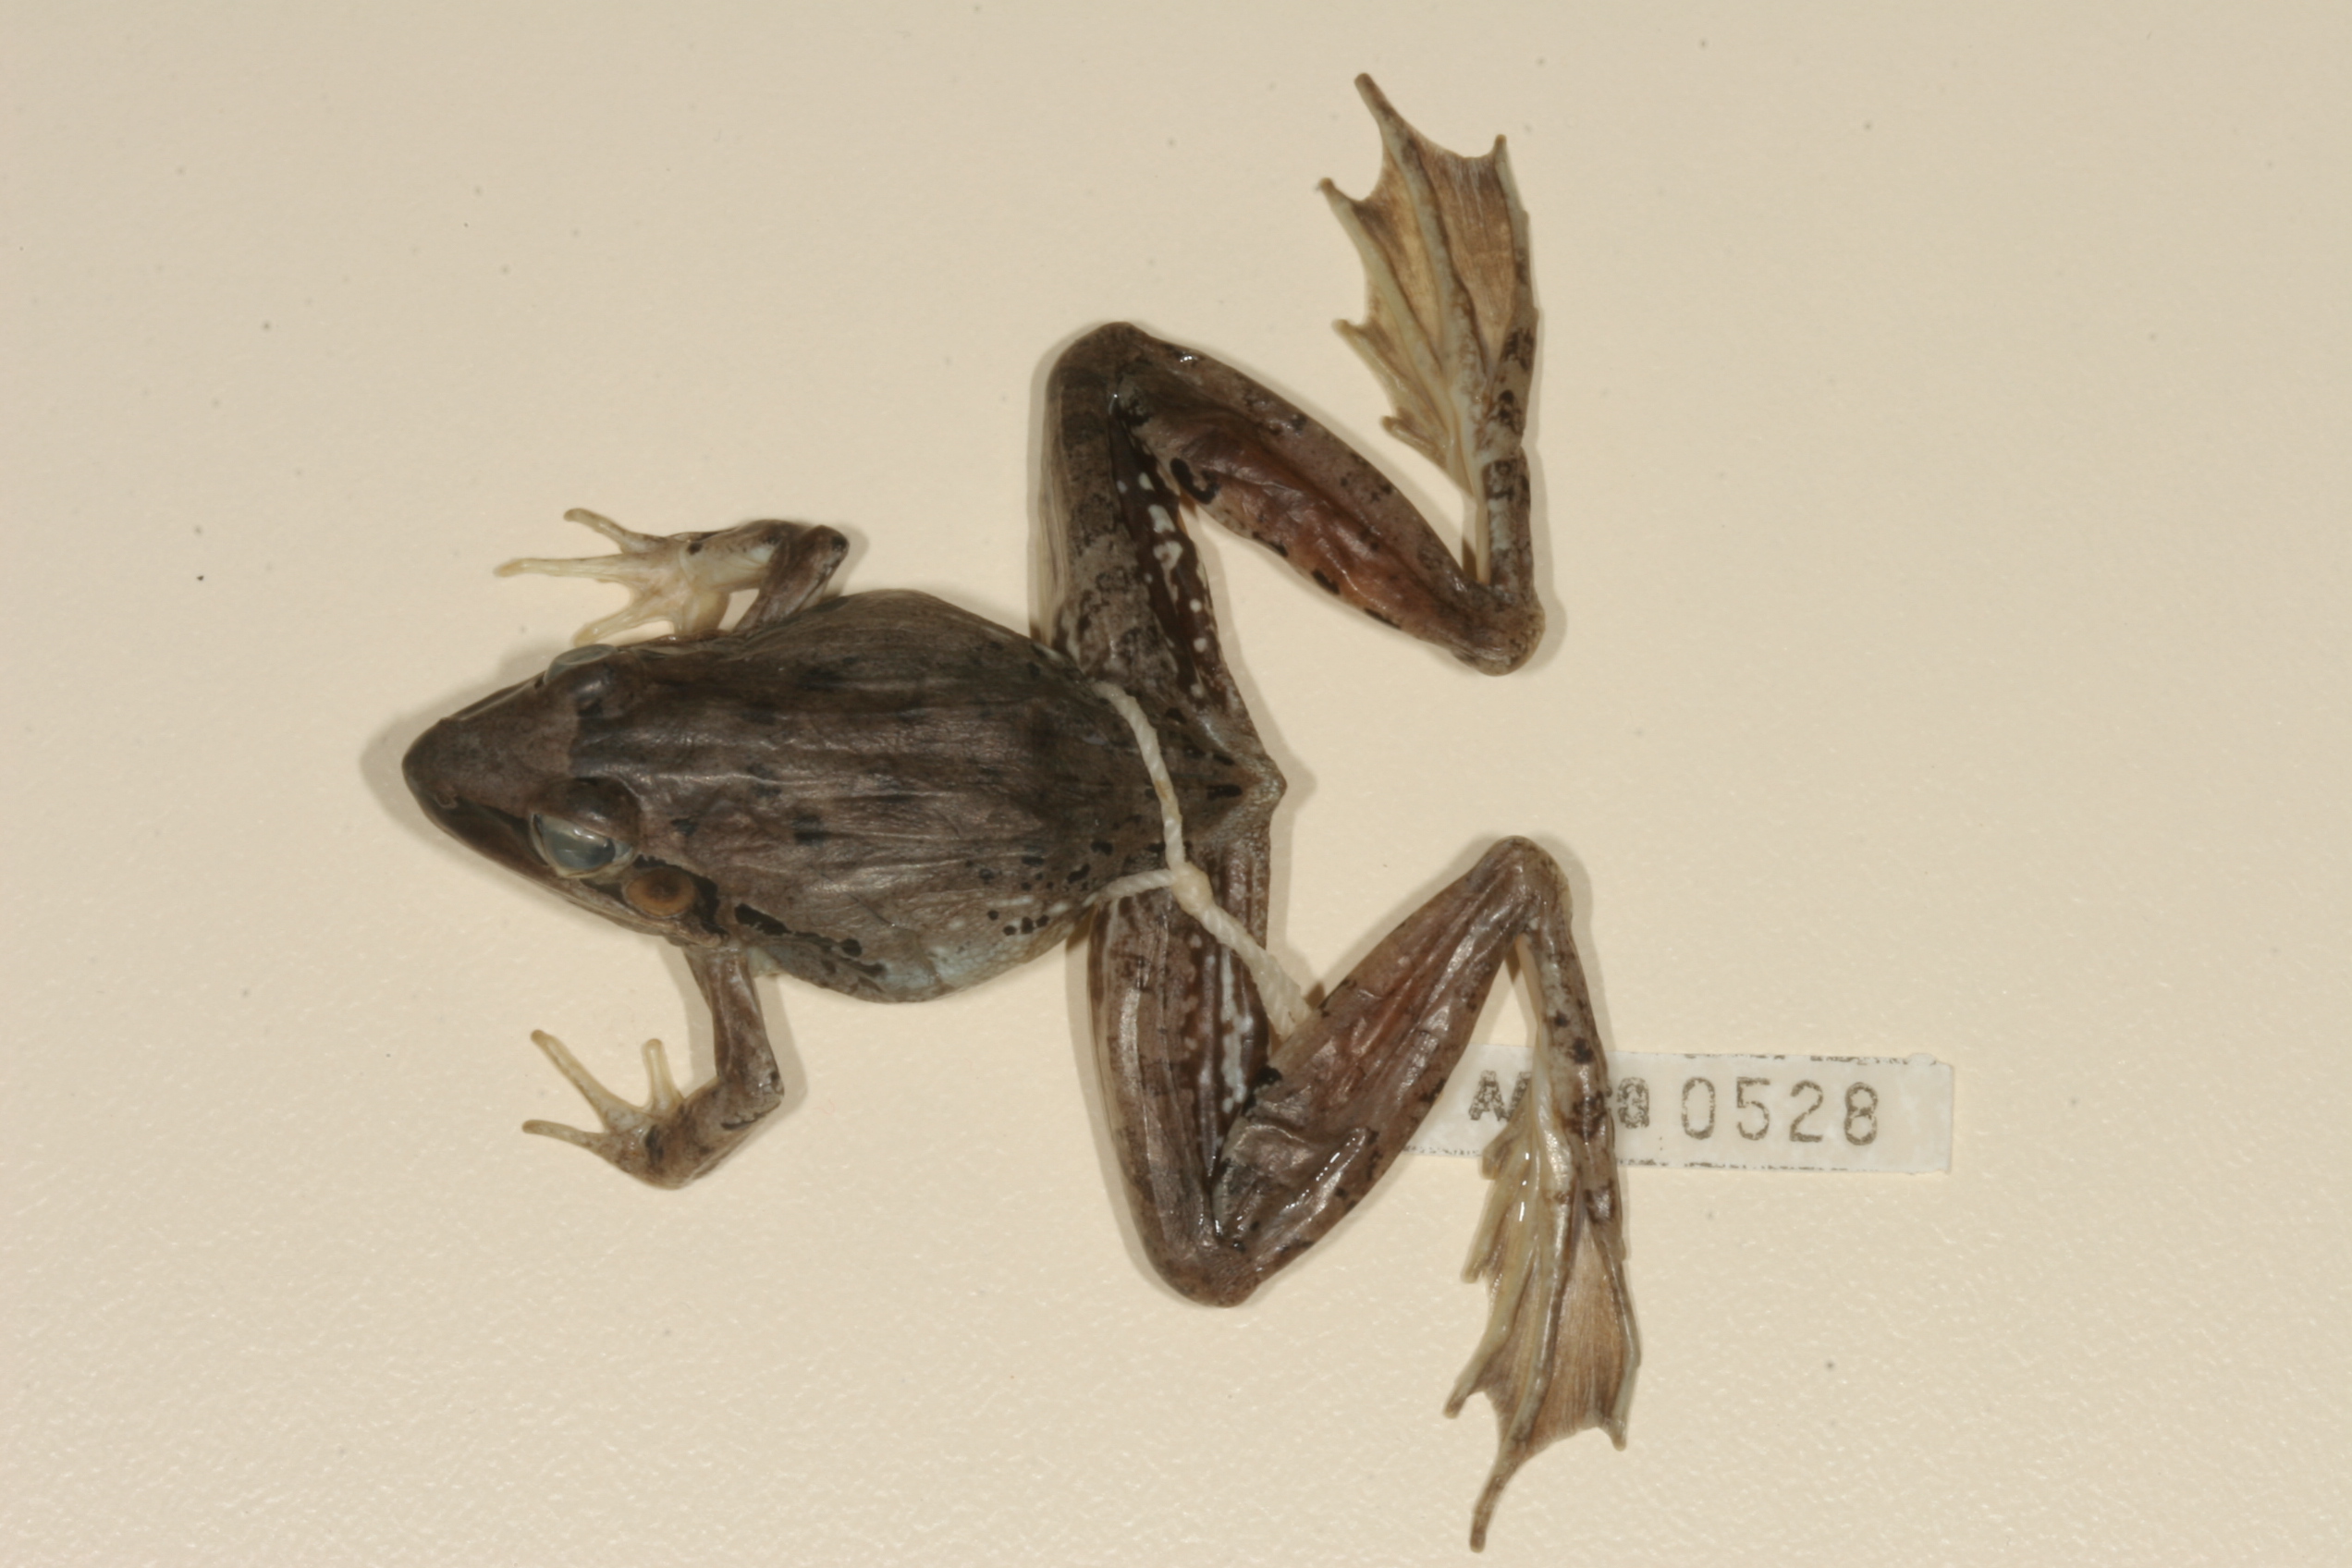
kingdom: Animalia
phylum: Chordata
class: Amphibia
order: Anura
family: Ptychadenidae
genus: Ptychadena
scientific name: Ptychadena anchietae
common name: Anchieta's ridged frog
